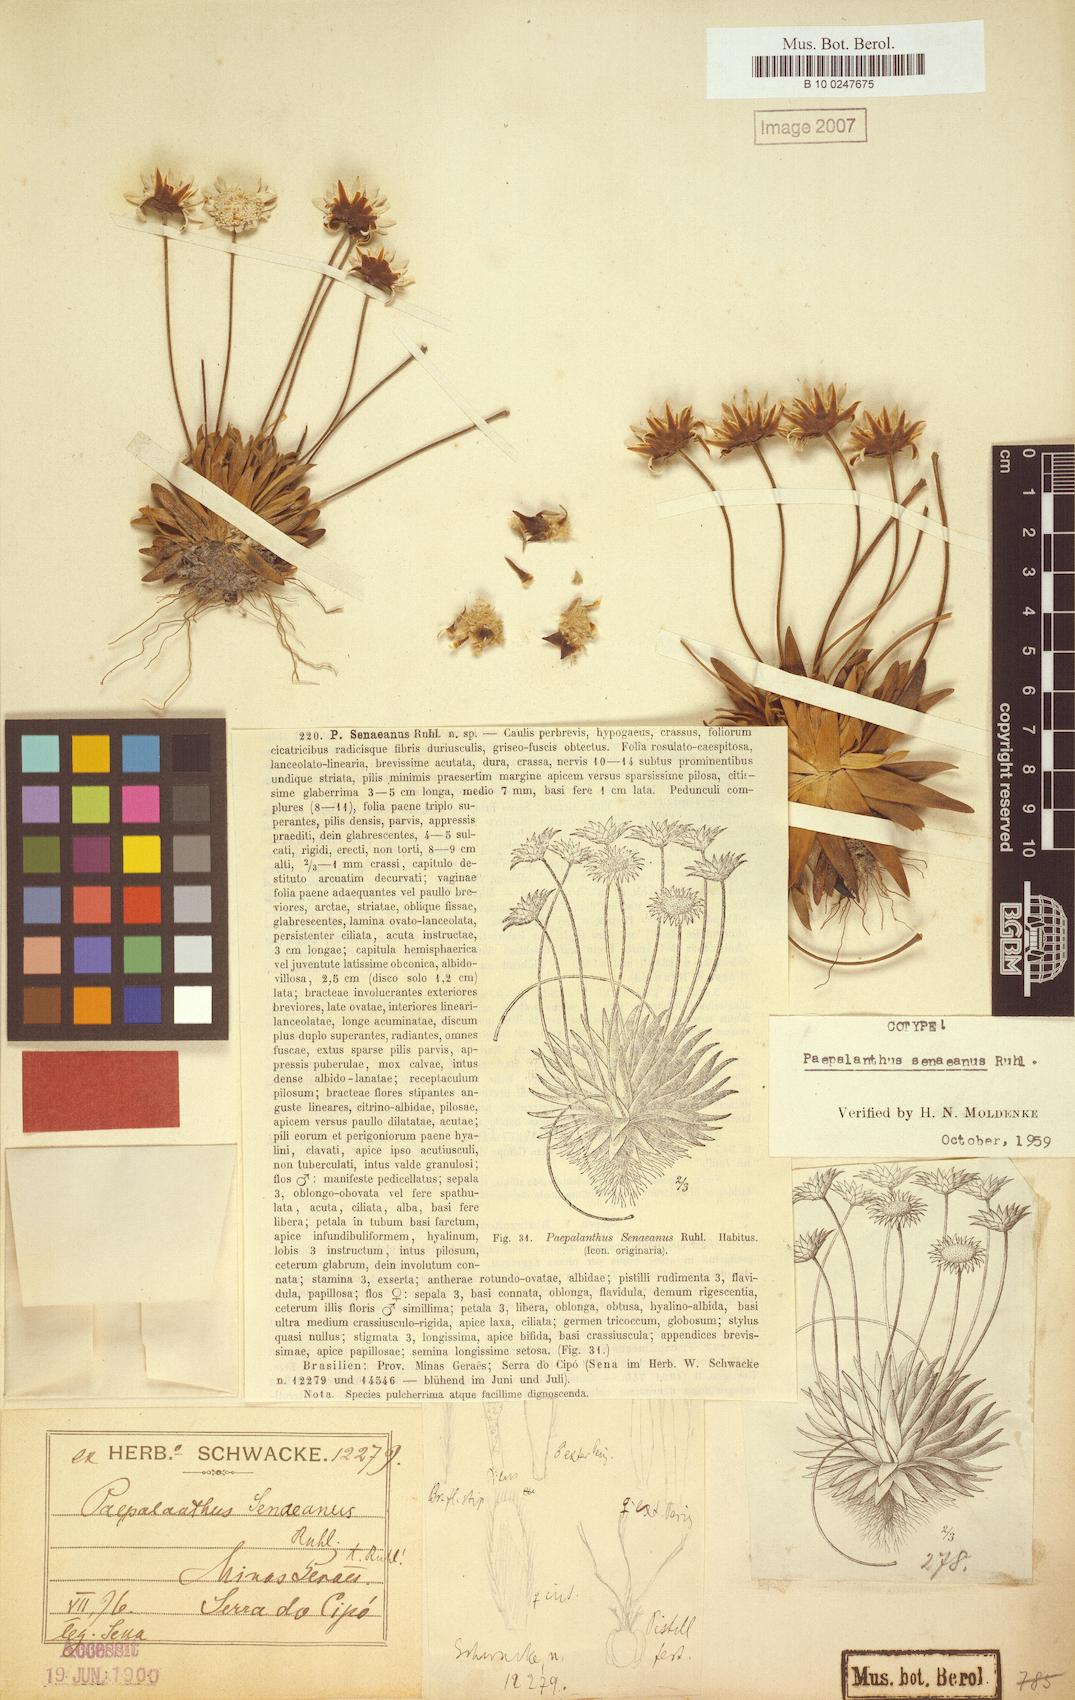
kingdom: Plantae
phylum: Tracheophyta
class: Liliopsida
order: Poales
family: Eriocaulaceae
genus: Paepalanthus
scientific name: Paepalanthus senaeanus
